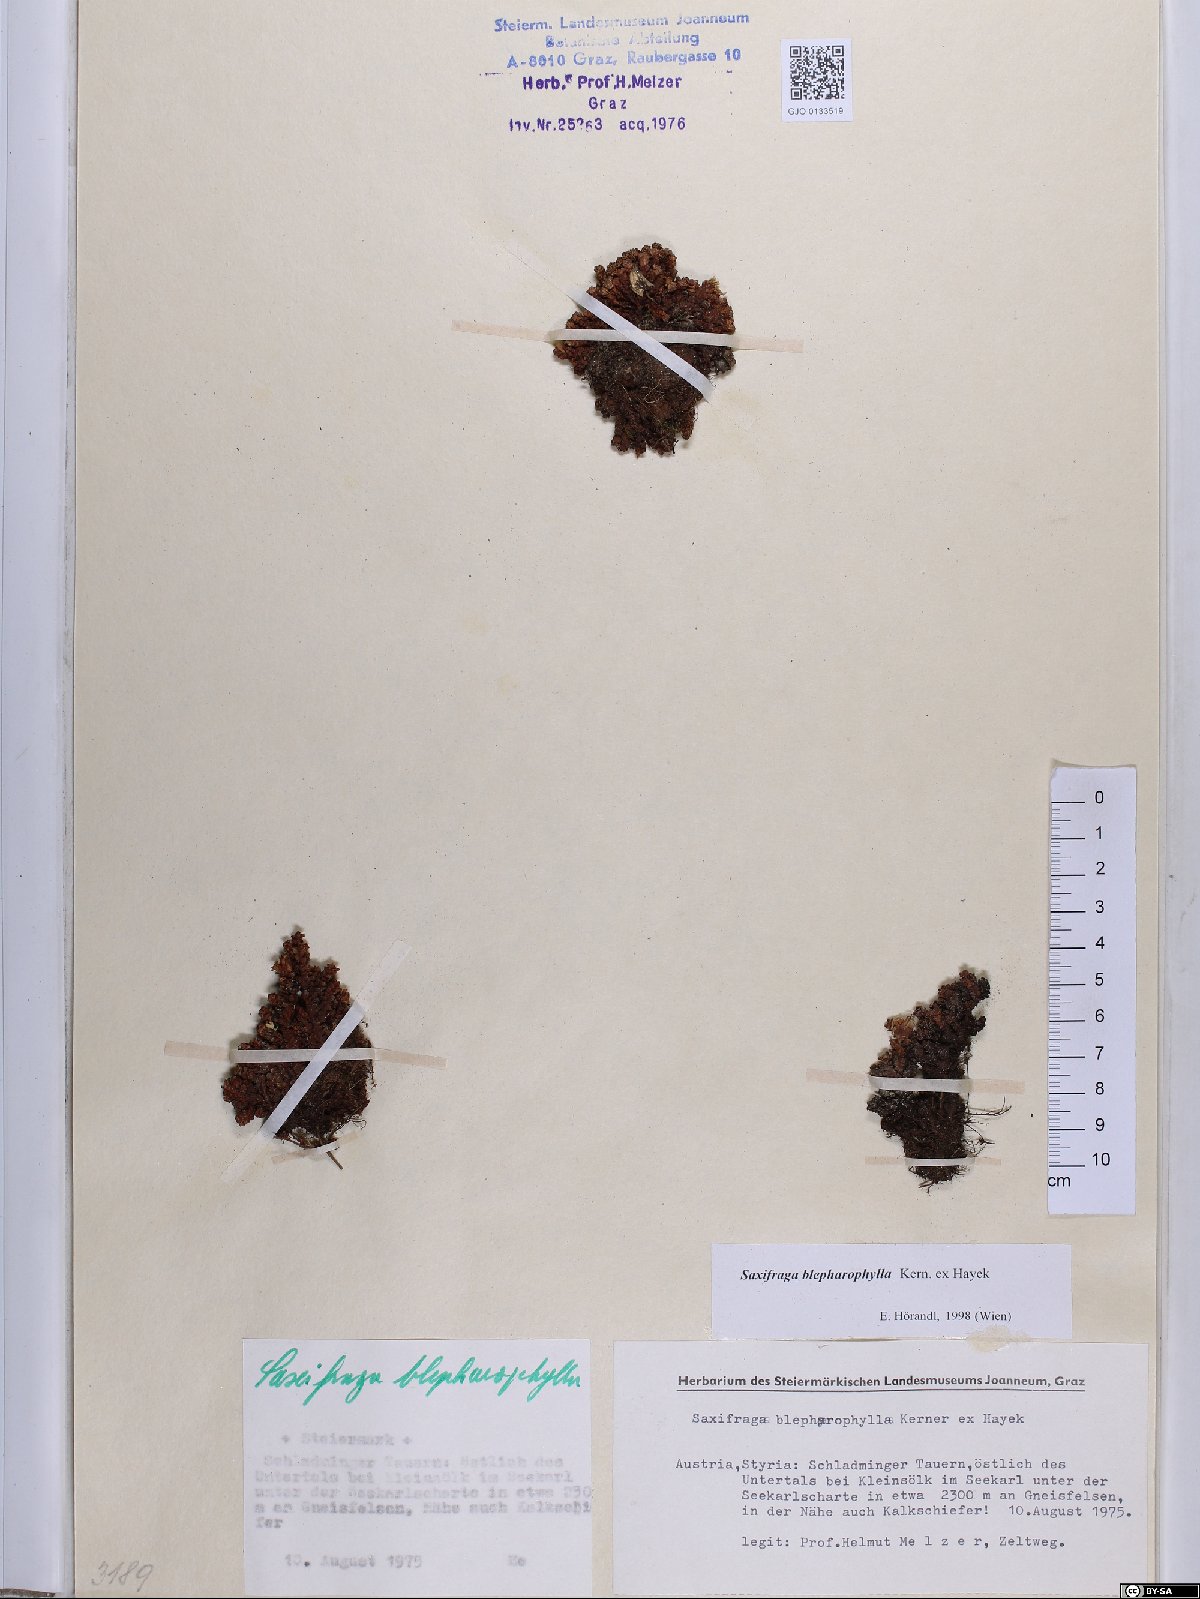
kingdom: Plantae
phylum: Tracheophyta
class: Magnoliopsida
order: Saxifragales
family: Saxifragaceae
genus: Saxifraga
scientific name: Saxifraga oppositifolia
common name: Purple saxifrage
